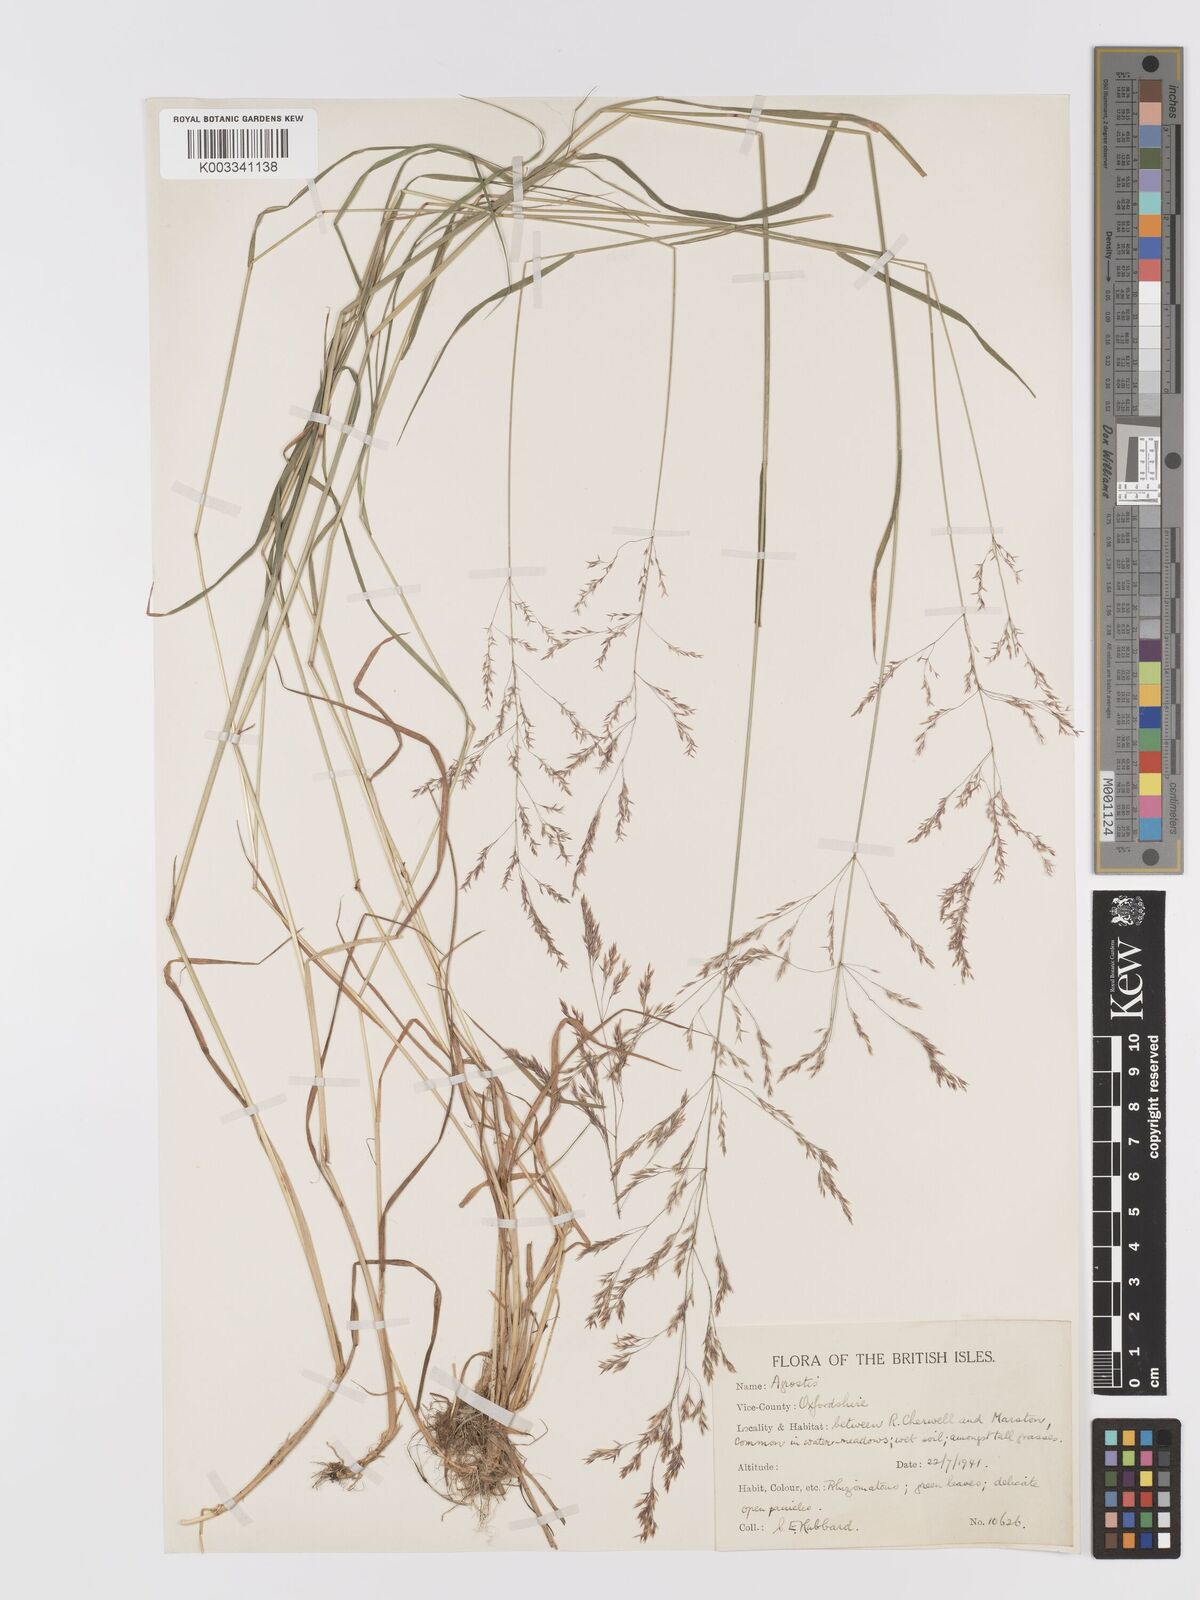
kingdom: Plantae
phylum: Tracheophyta
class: Liliopsida
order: Poales
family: Poaceae
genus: Agrostis
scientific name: Agrostis gigantea
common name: Black bent
